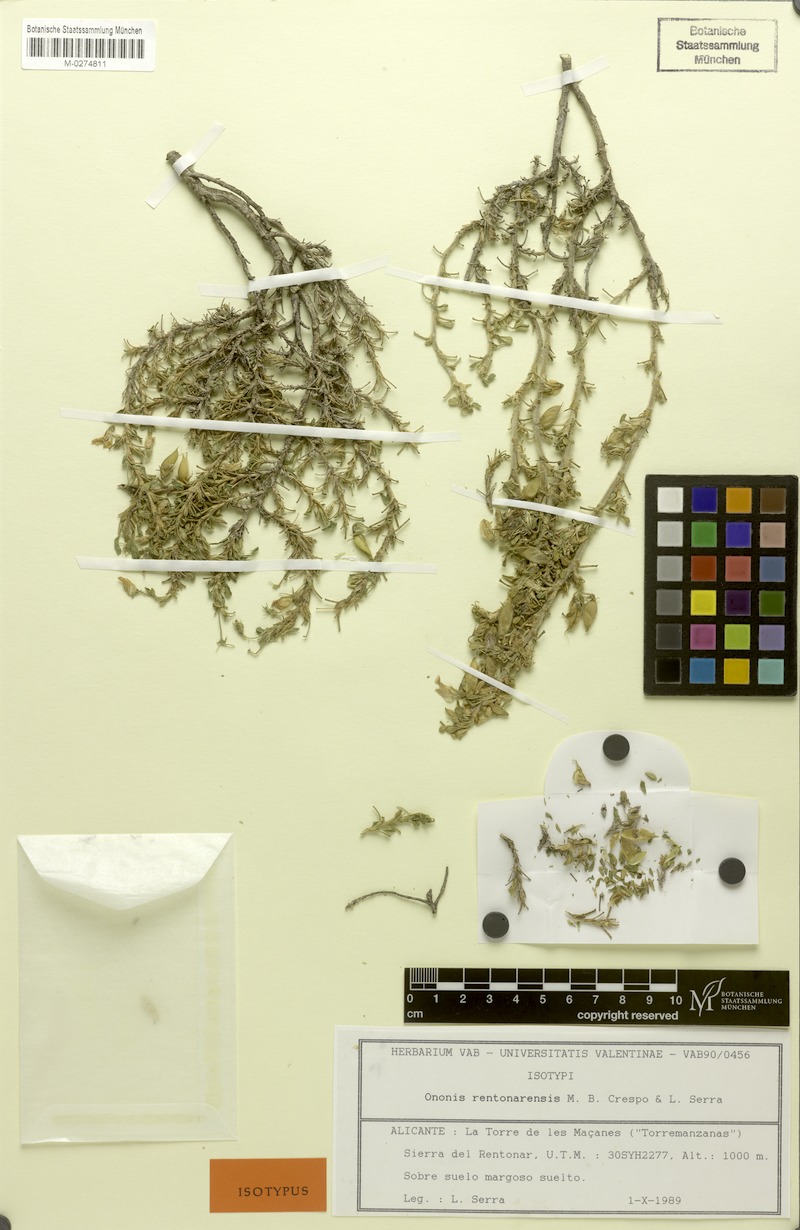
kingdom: Plantae
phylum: Tracheophyta
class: Magnoliopsida
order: Fabales
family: Fabaceae
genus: Ononis
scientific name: Ononis tridentata
